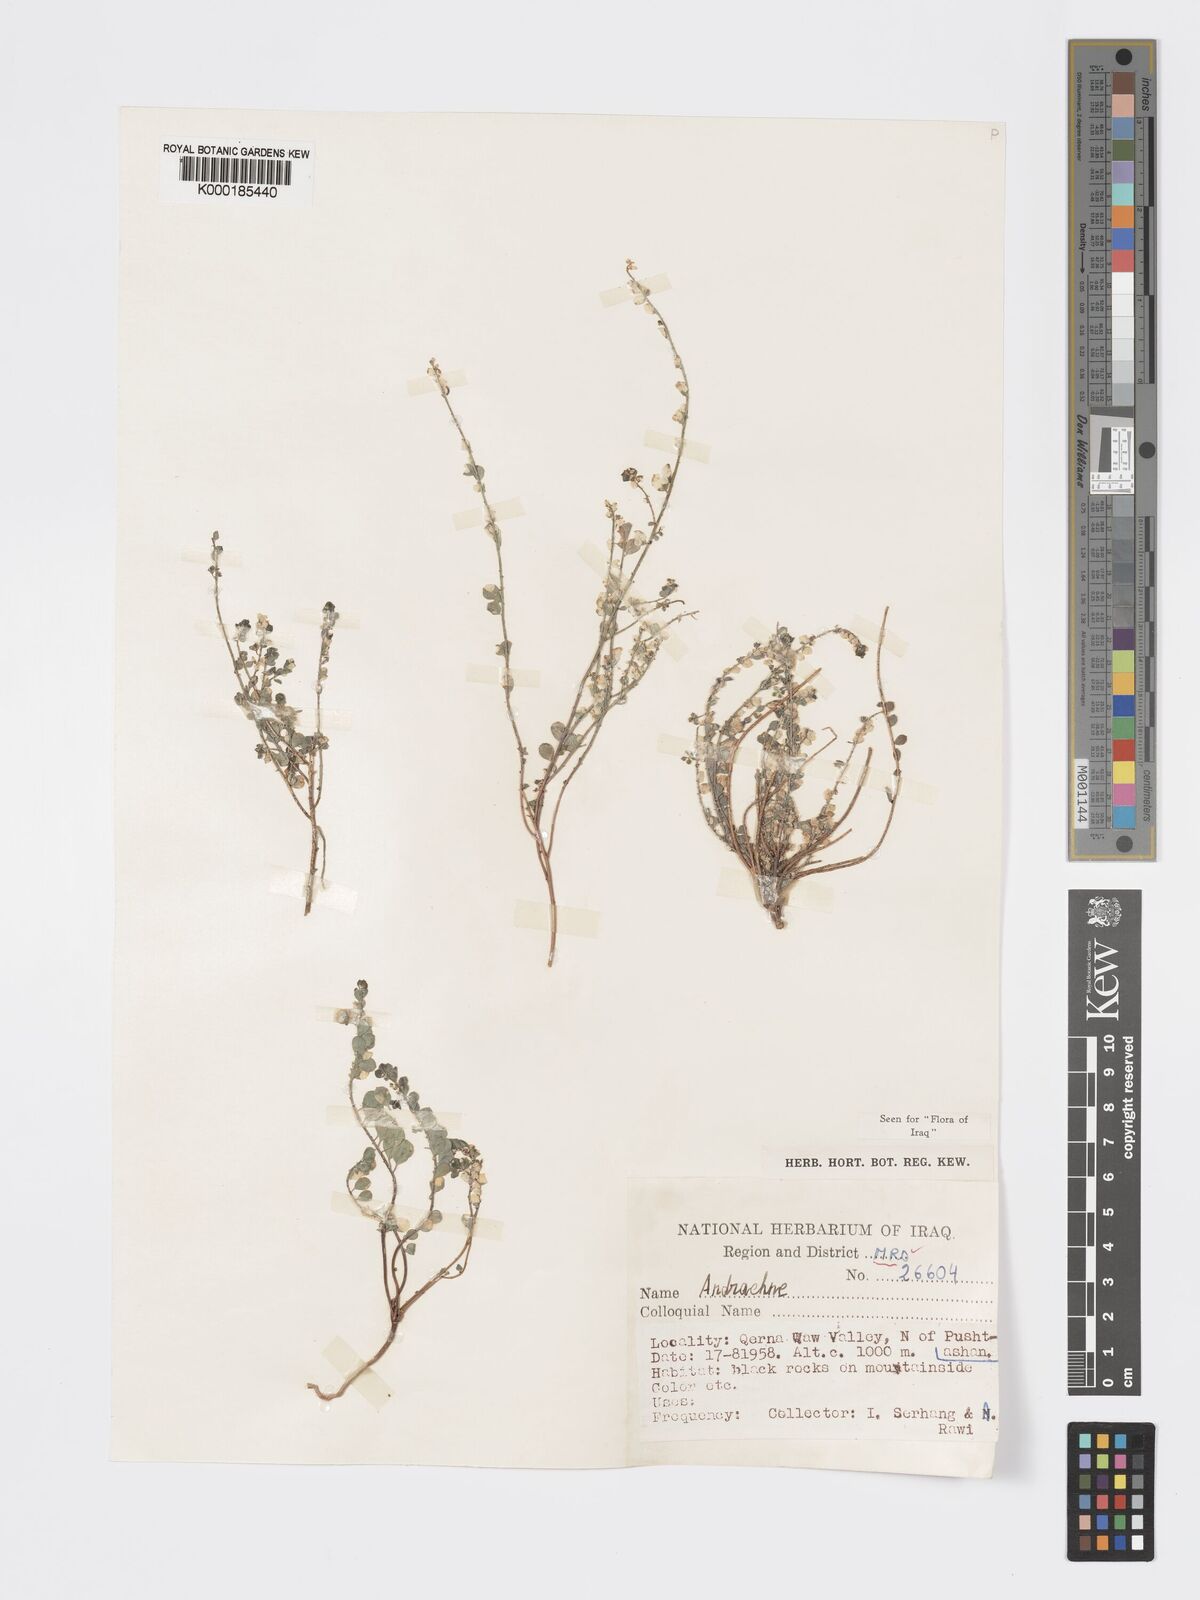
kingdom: Plantae
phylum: Tracheophyta
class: Magnoliopsida
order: Malpighiales
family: Phyllanthaceae
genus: Andrachne
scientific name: Andrachne telephioides
